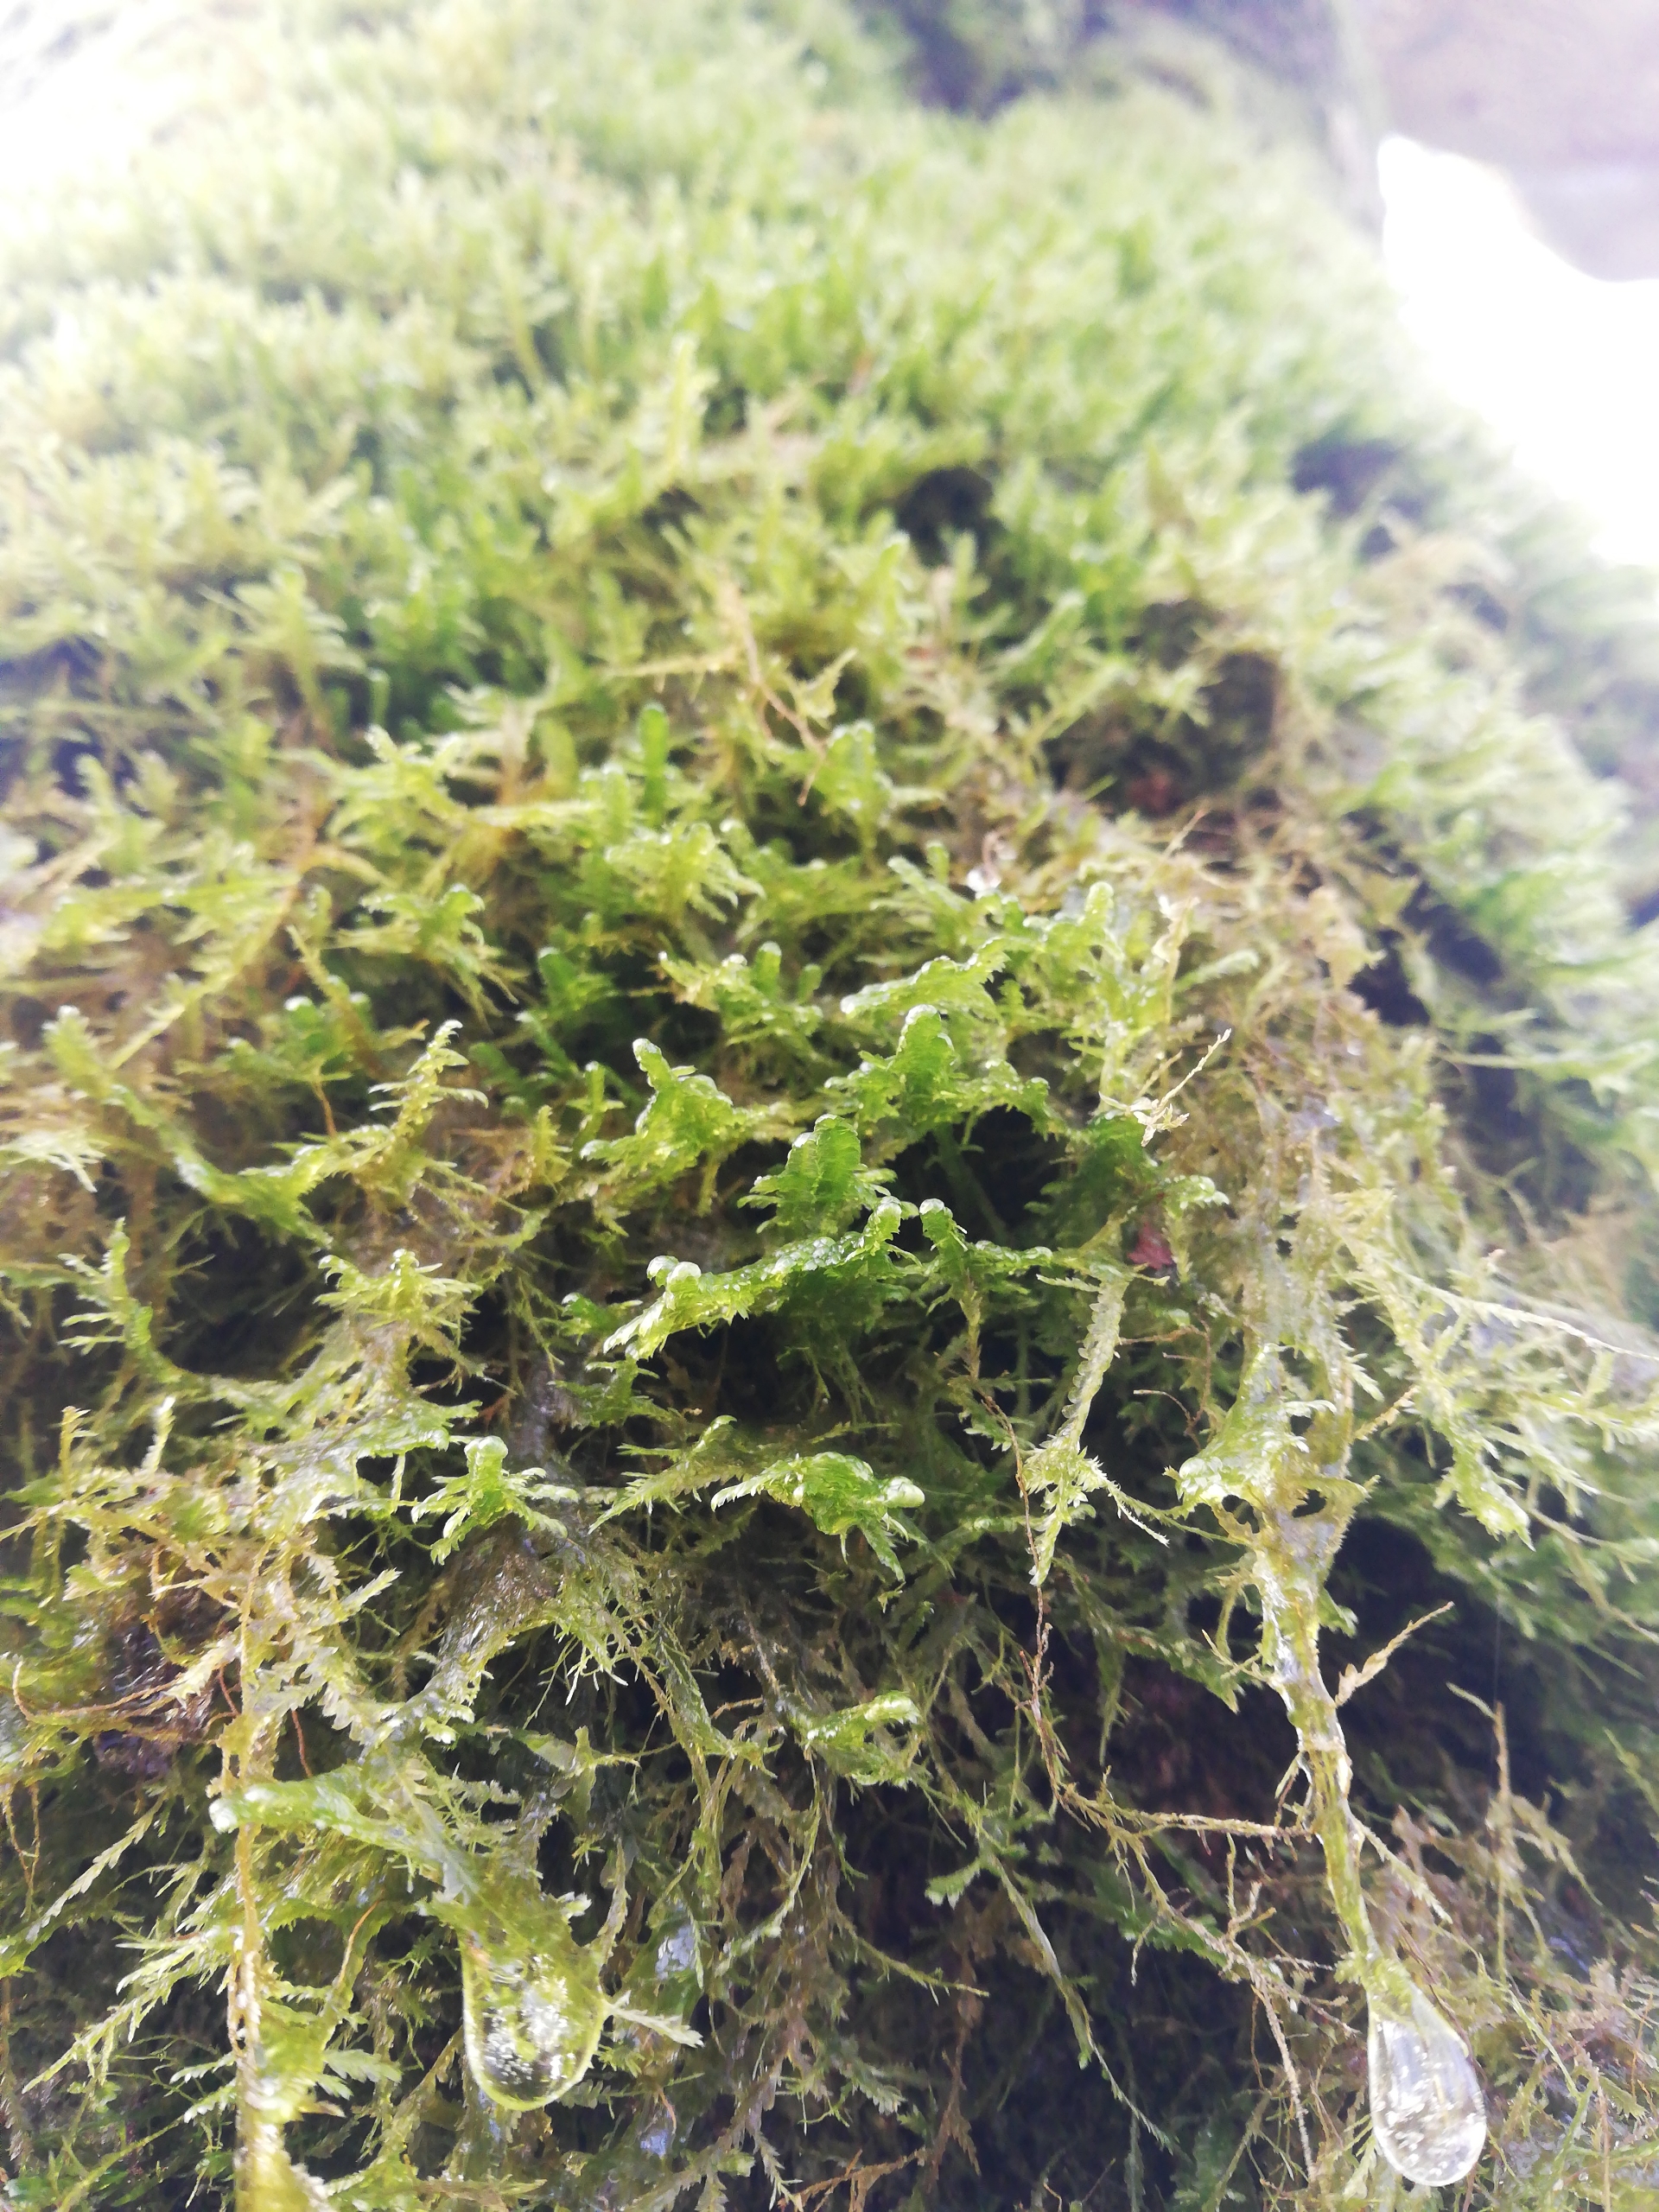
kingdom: Plantae
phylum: Bryophyta
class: Bryopsida
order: Hypnales
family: Neckeraceae
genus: Alleniella
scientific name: Alleniella complanata
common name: Almindelig fladmos
